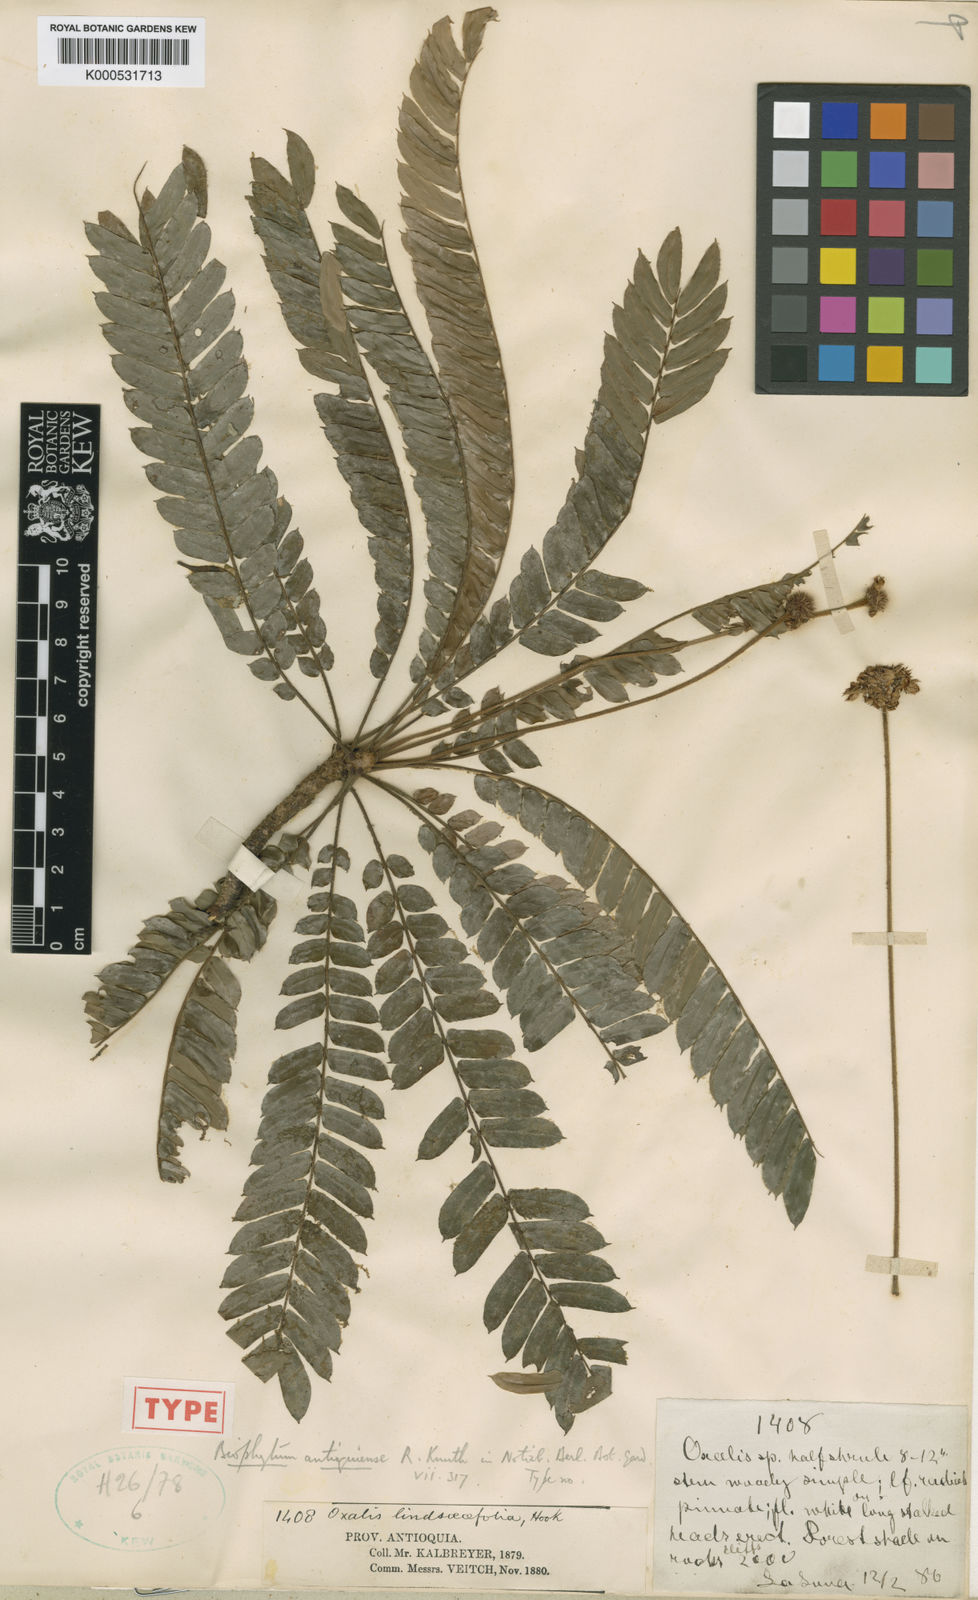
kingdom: Plantae
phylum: Tracheophyta
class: Magnoliopsida
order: Oxalidales
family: Oxalidaceae
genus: Biophytum
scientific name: Biophytum antioquiense
